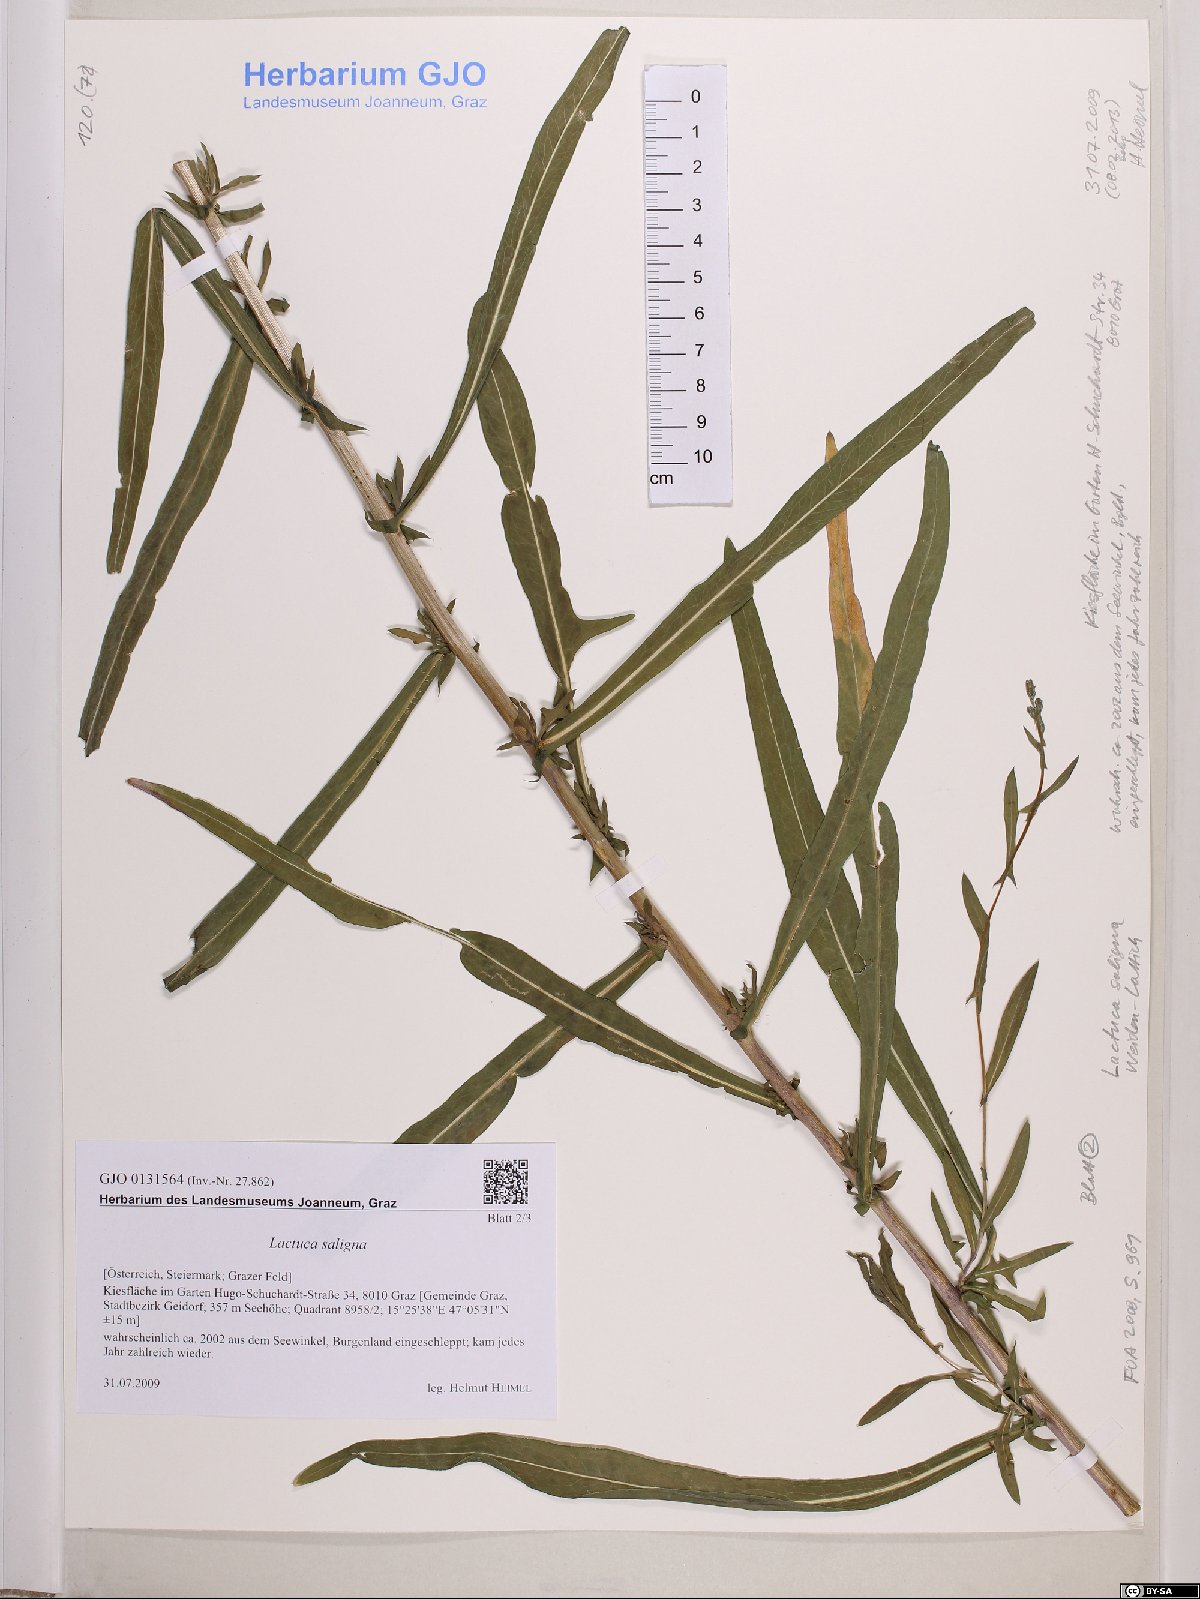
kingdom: Plantae
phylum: Tracheophyta
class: Magnoliopsida
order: Asterales
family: Asteraceae
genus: Lactuca
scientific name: Lactuca saligna
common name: Wild lettuce
